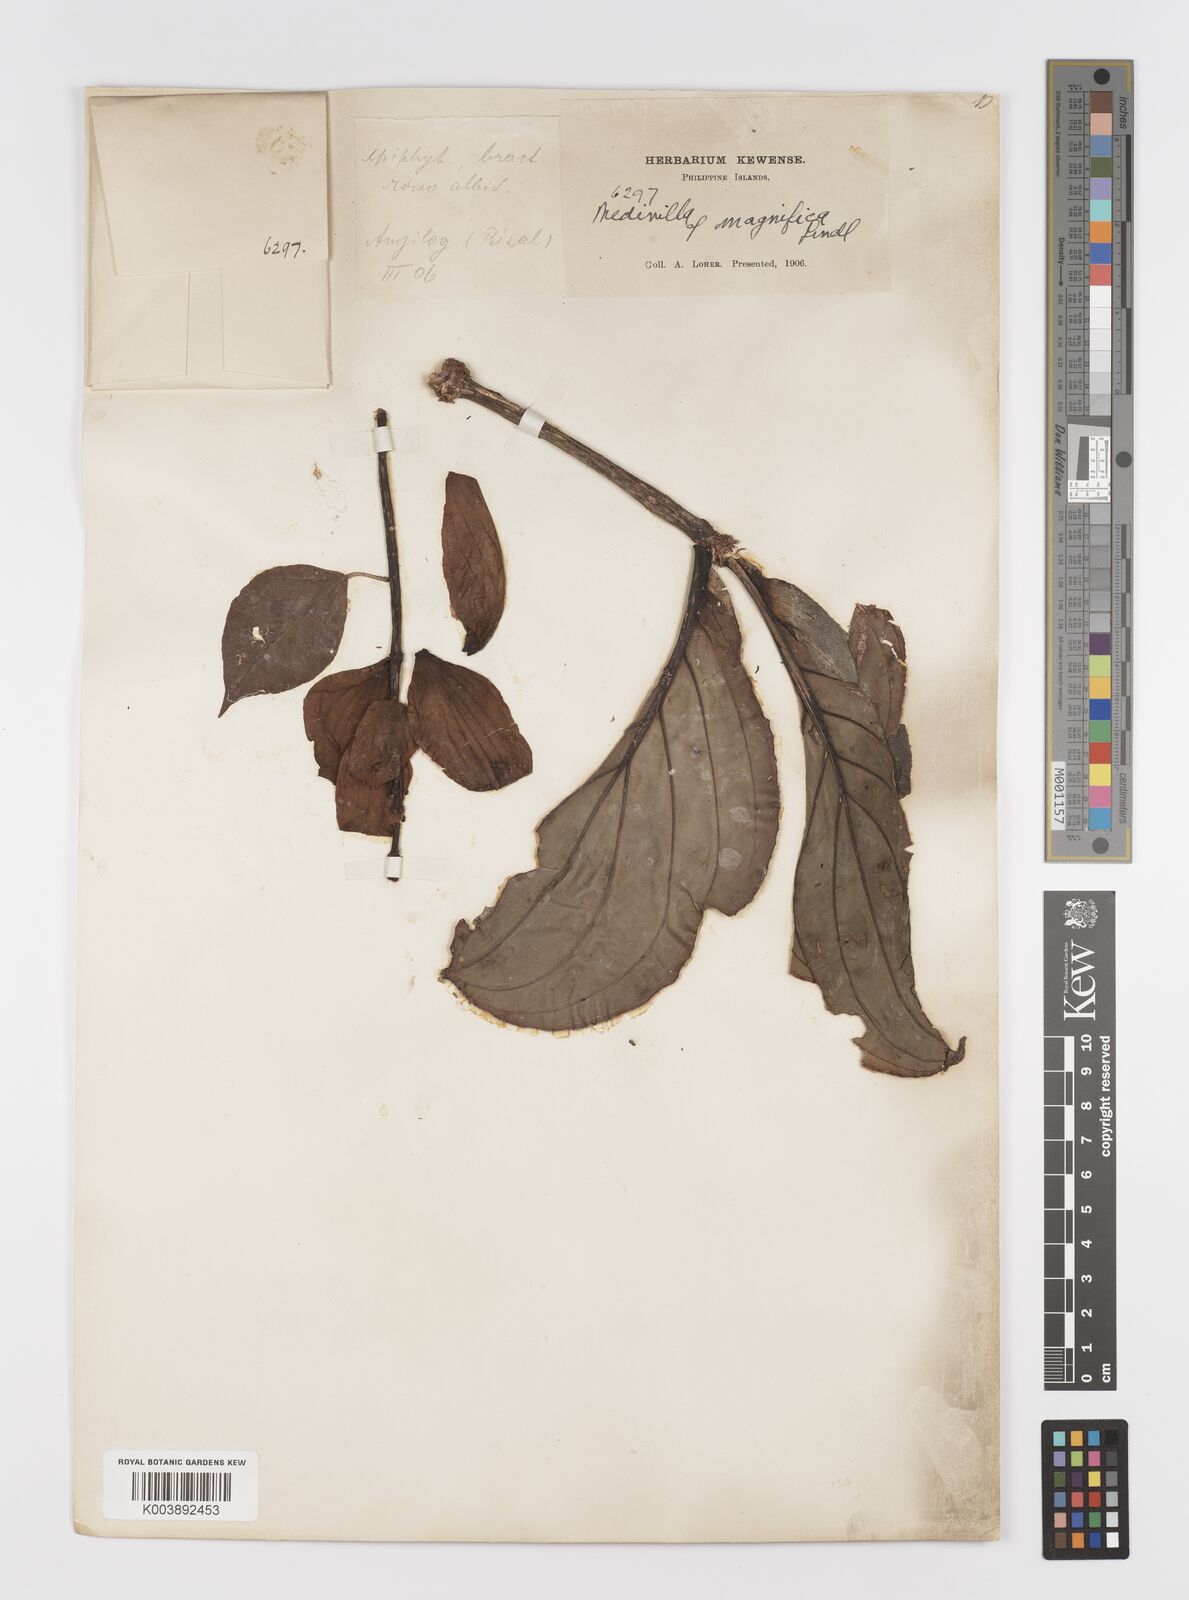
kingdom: Plantae
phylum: Tracheophyta
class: Magnoliopsida
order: Myrtales
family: Melastomataceae
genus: Medinilla
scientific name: Medinilla magnifica
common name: Showy medinilla
